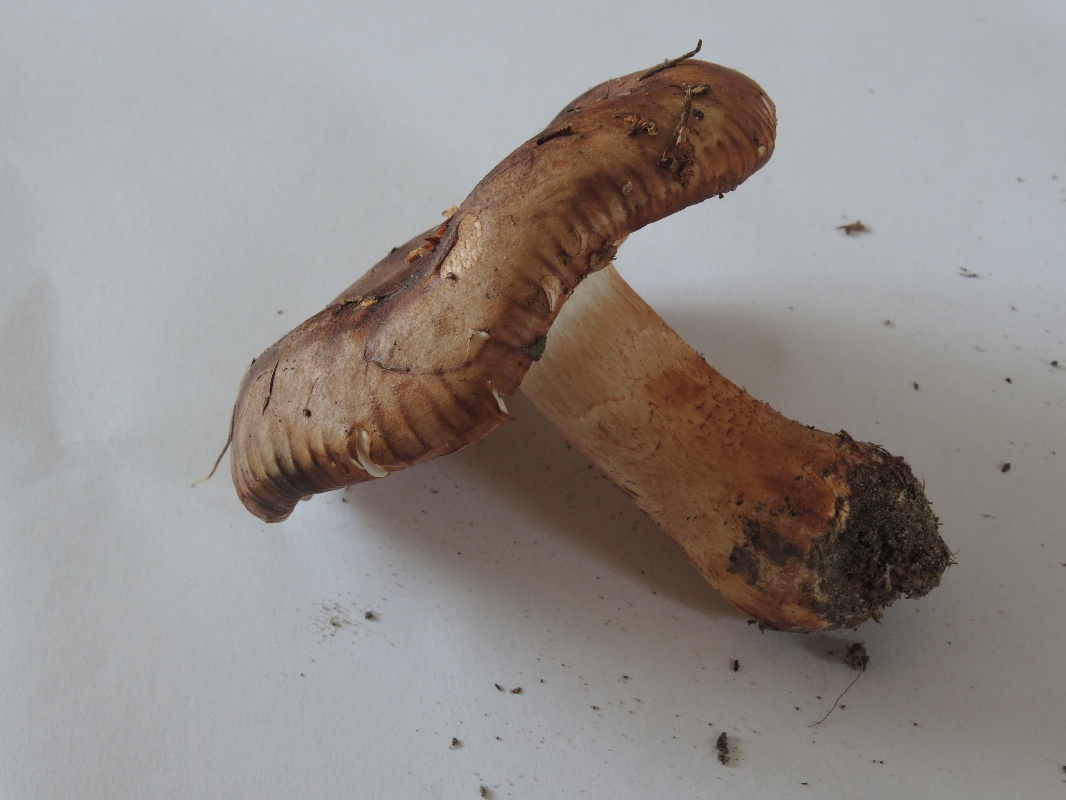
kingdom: Fungi
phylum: Basidiomycota
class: Agaricomycetes
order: Agaricales
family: Tricholomataceae
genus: Tricholoma
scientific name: Tricholoma stans
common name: stolt ridderhat
